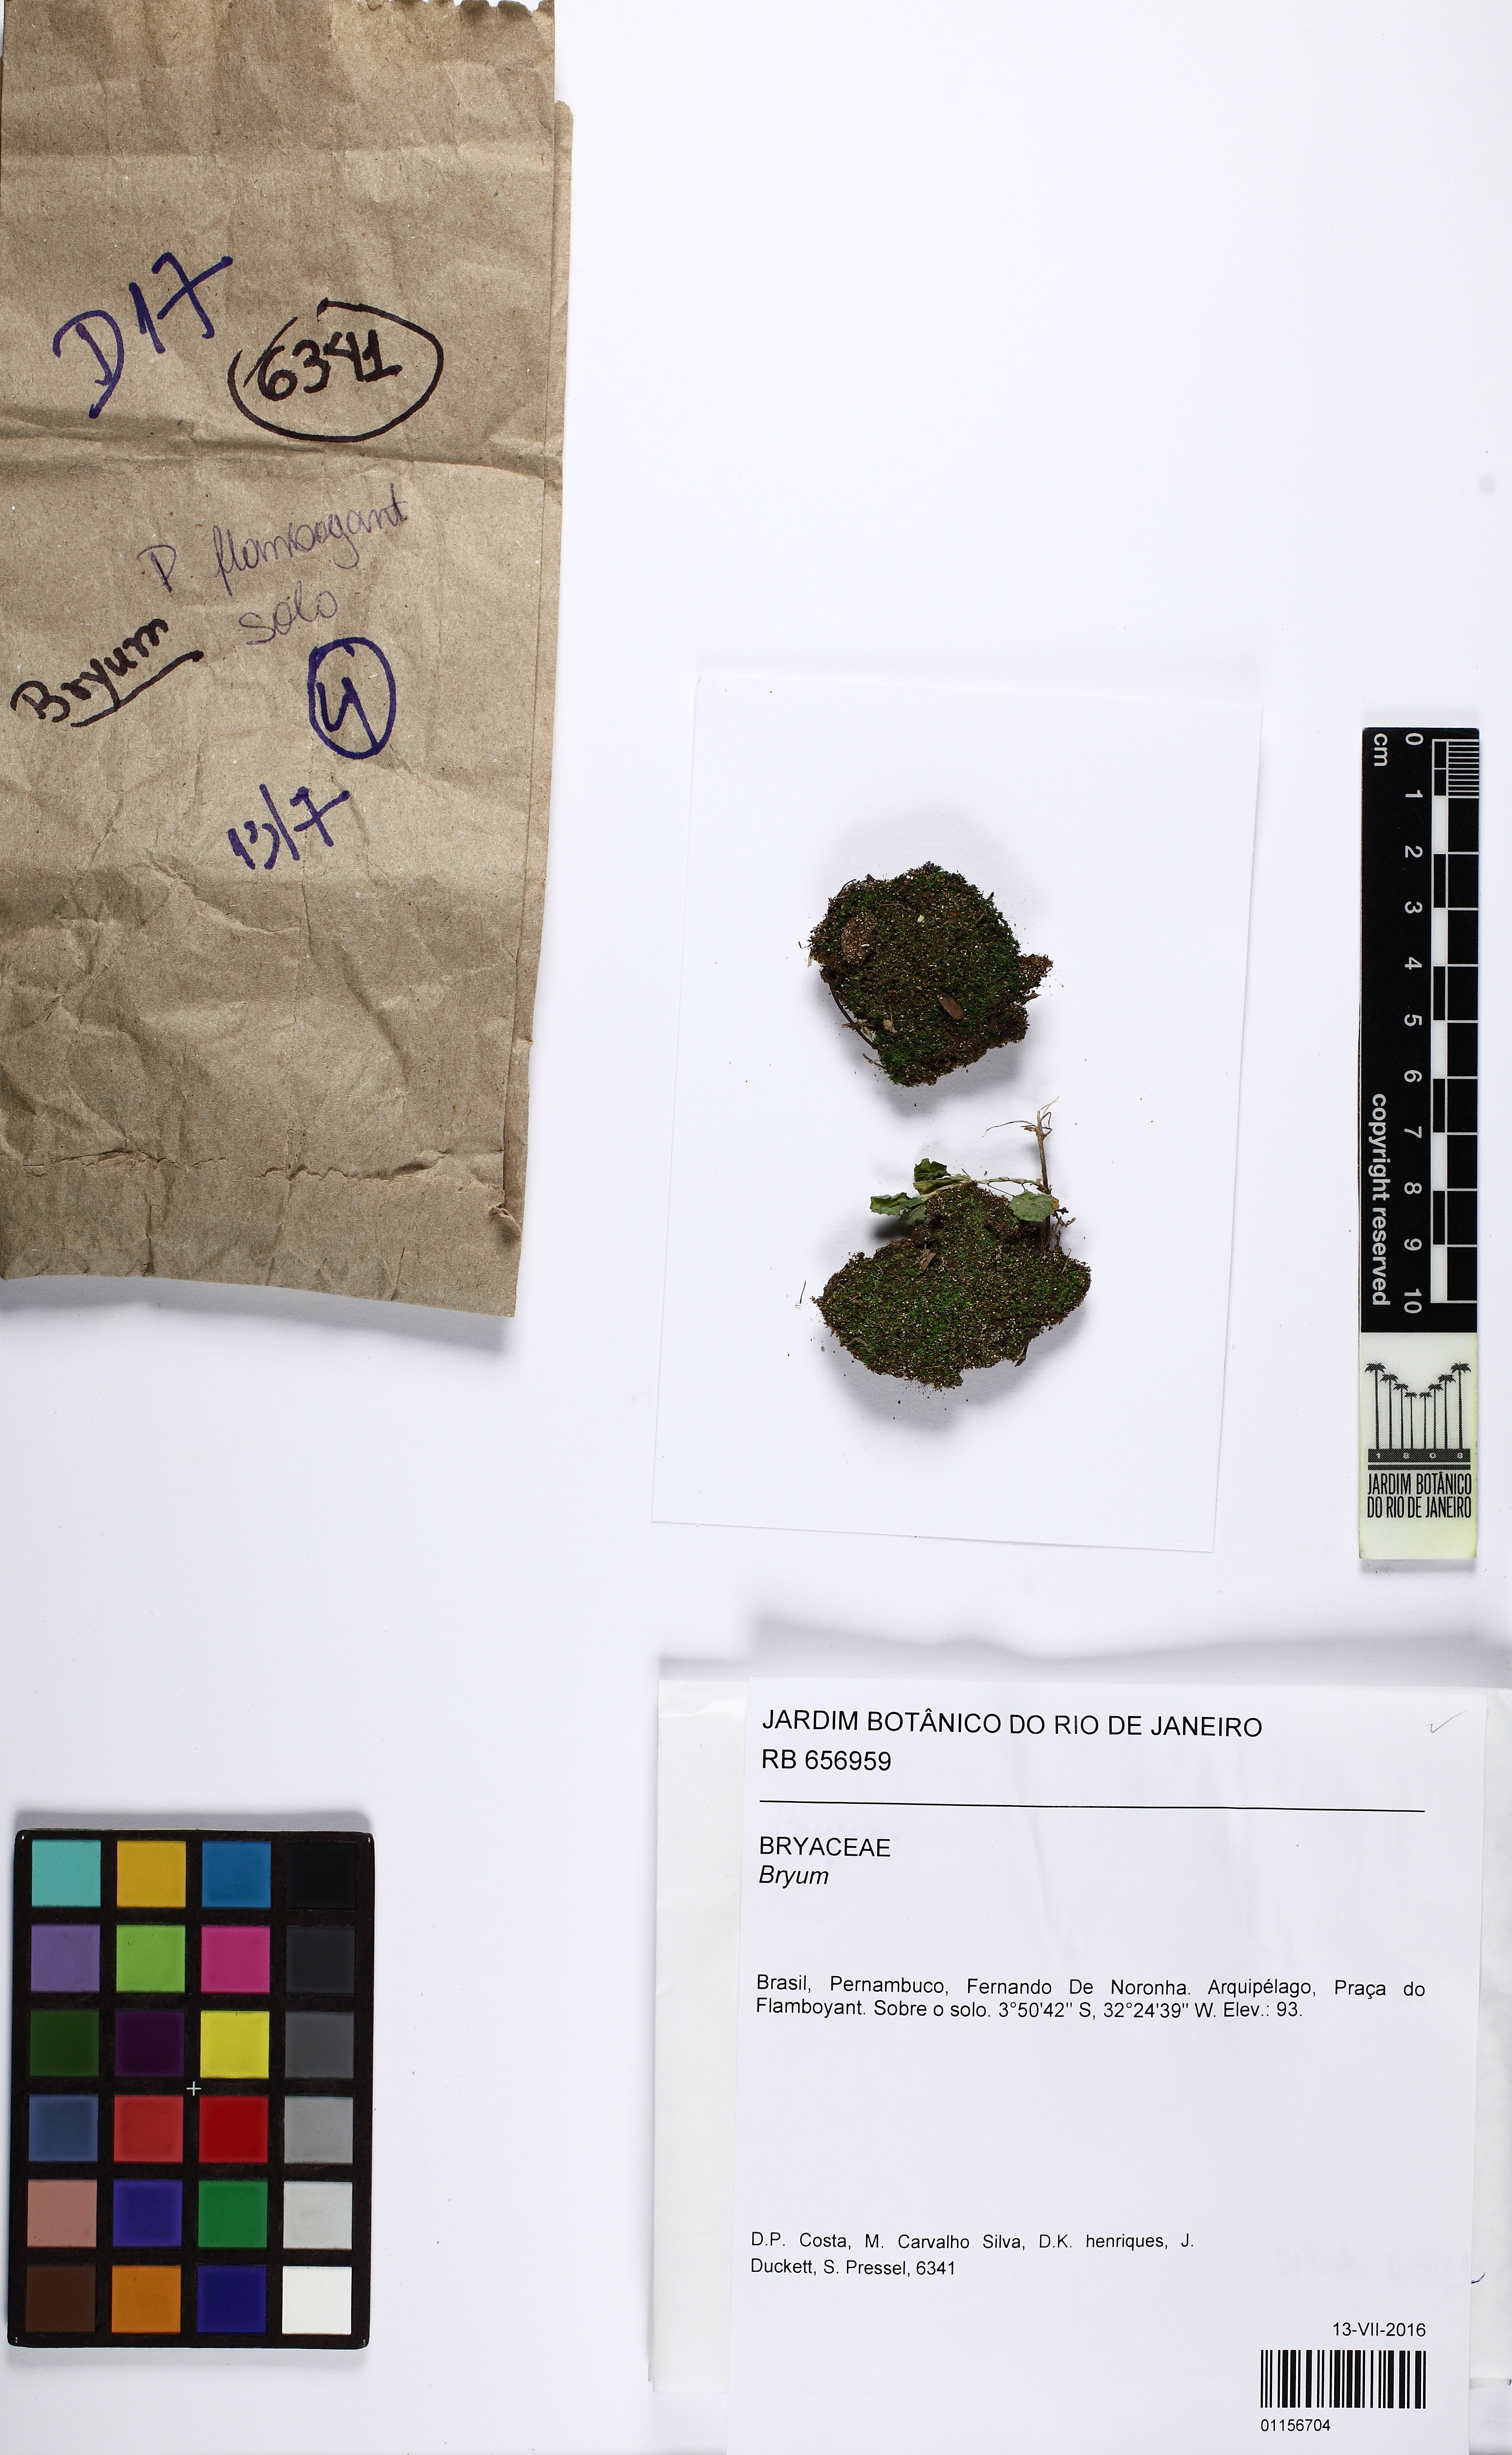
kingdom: Plantae
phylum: Bryophyta
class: Bryopsida
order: Bryales
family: Bryaceae
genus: Bryum
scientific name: Bryum
